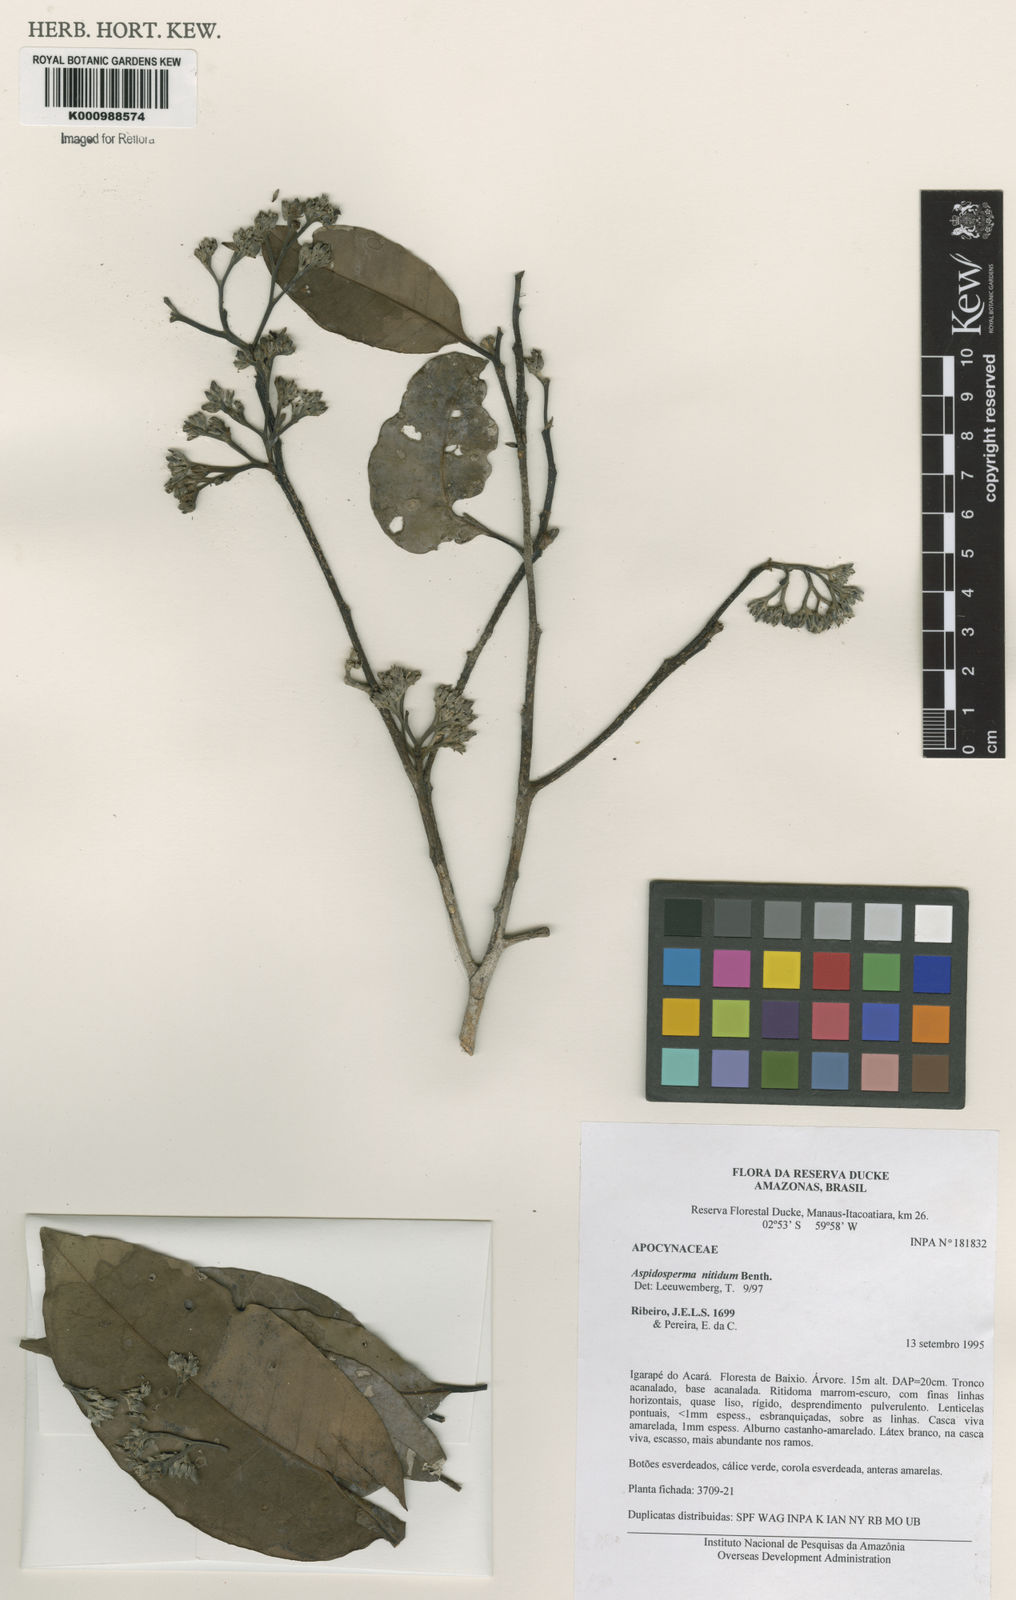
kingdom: Plantae
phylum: Tracheophyta
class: Magnoliopsida
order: Gentianales
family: Apocynaceae
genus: Aspidosperma
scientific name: Aspidosperma
